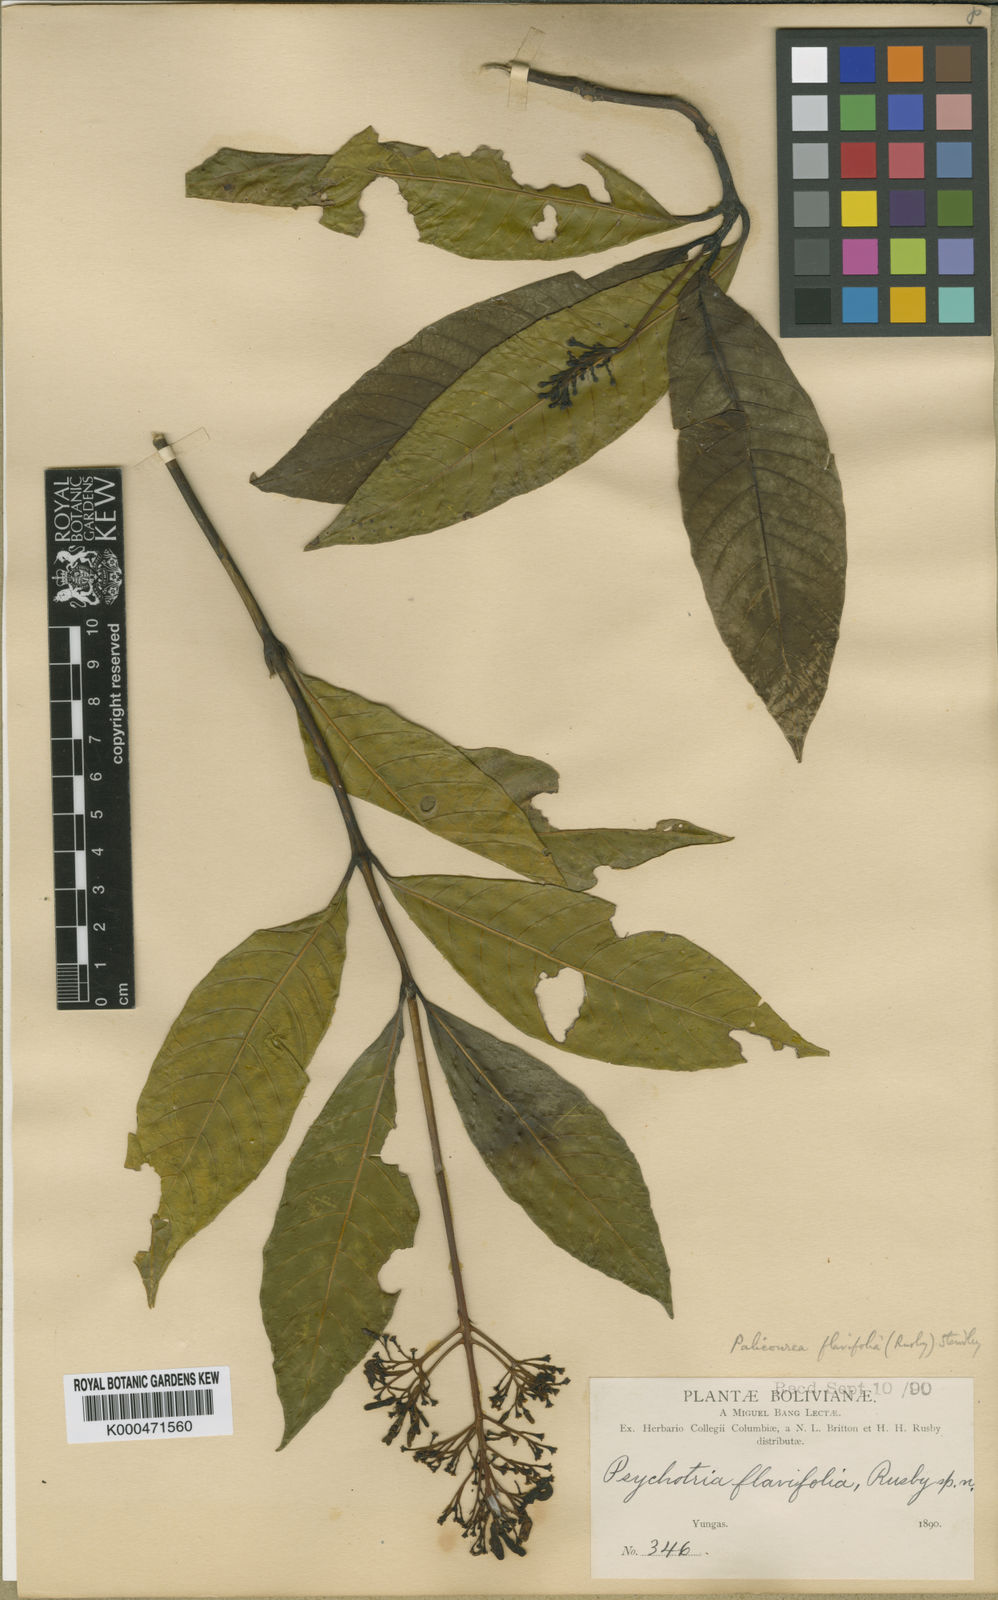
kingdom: Plantae
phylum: Tracheophyta
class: Magnoliopsida
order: Gentianales
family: Rubiaceae
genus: Palicourea
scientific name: Palicourea flavifolia
